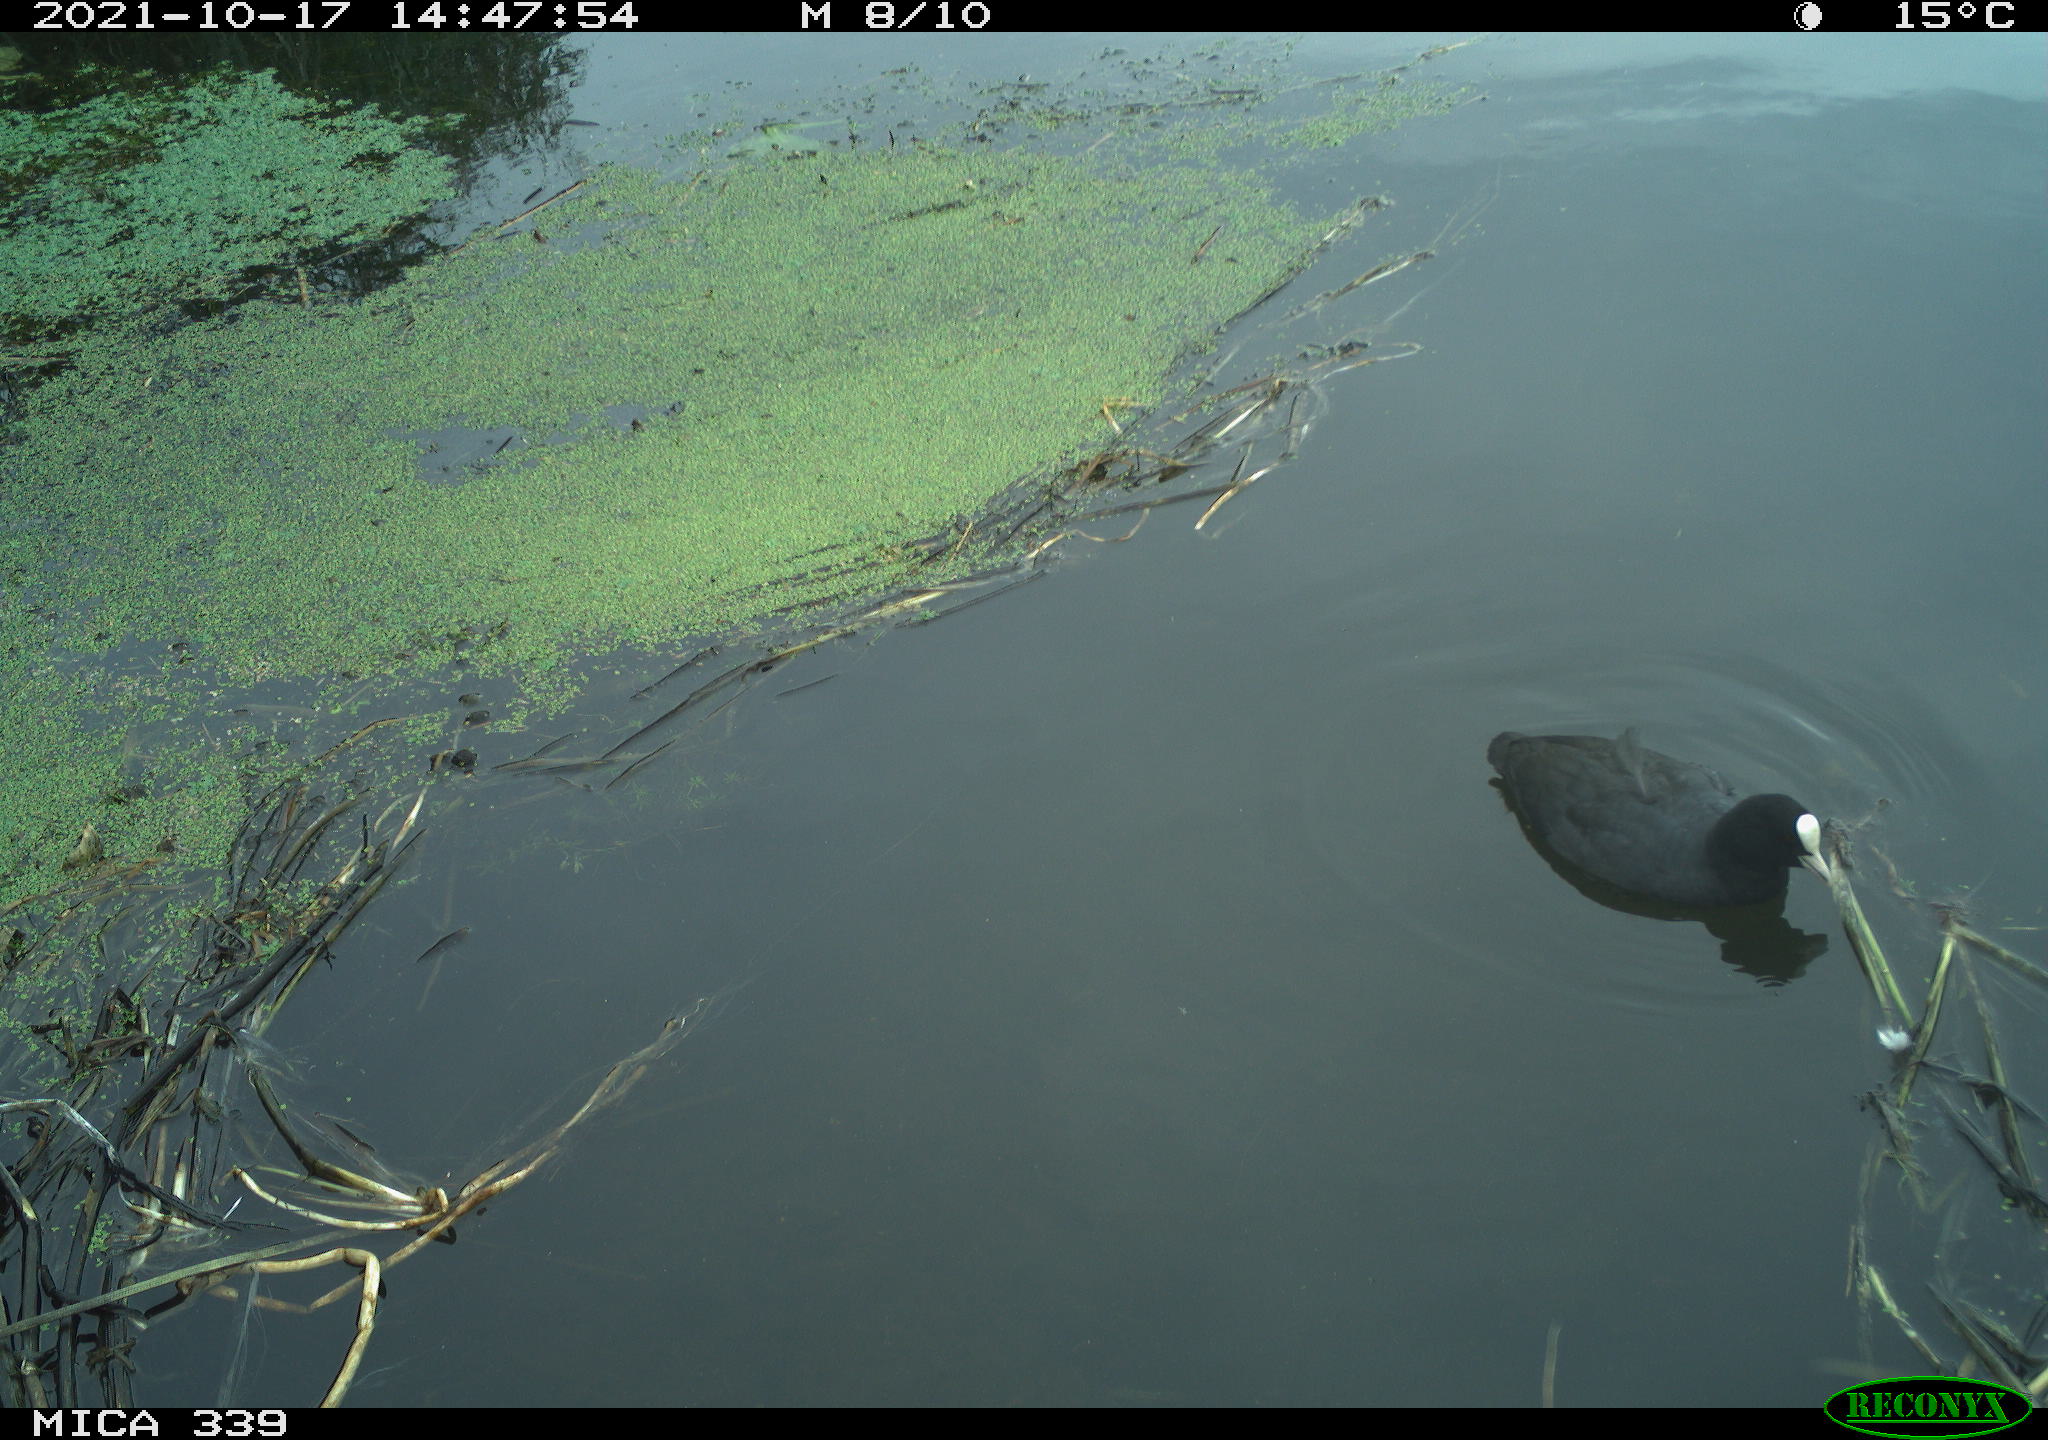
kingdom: Animalia
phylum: Chordata
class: Aves
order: Gruiformes
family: Rallidae
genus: Fulica
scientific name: Fulica atra
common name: Eurasian coot
